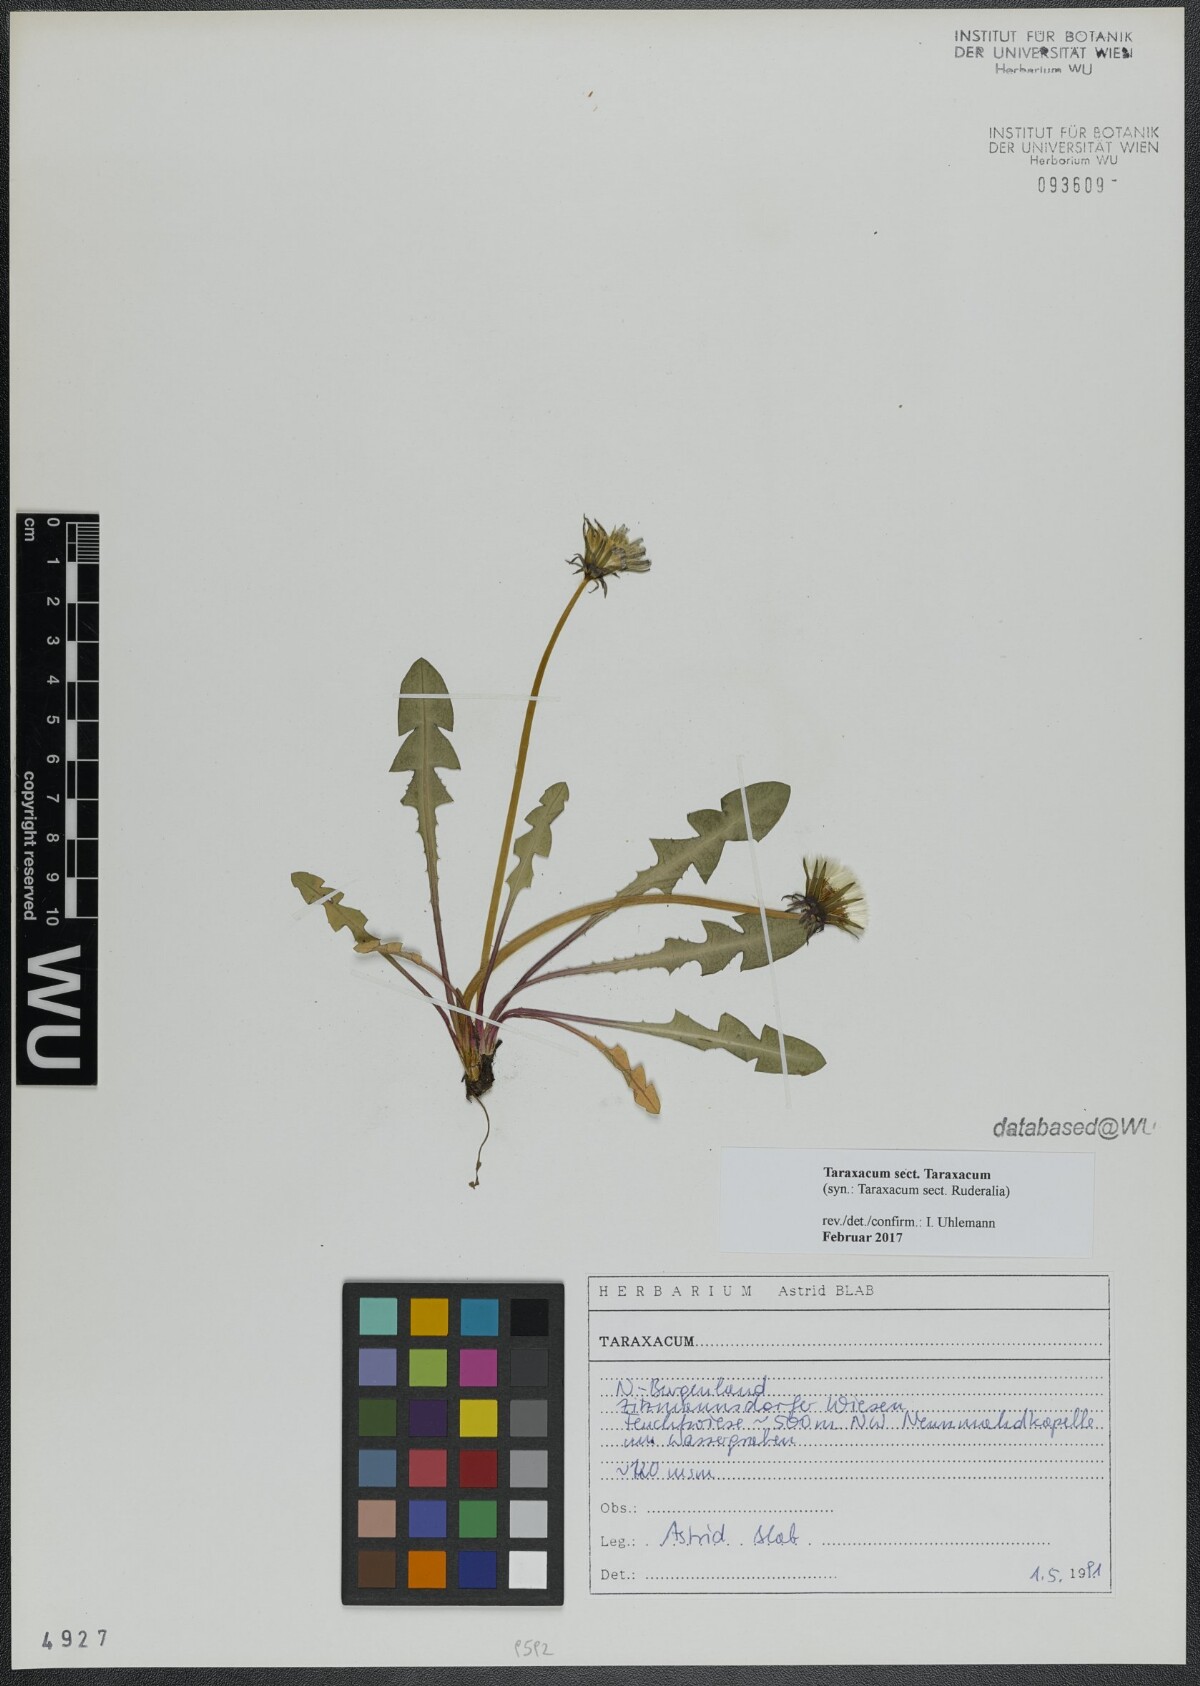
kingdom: Plantae
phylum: Tracheophyta
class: Magnoliopsida
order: Asterales
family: Asteraceae
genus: Taraxacum
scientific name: Taraxacum
